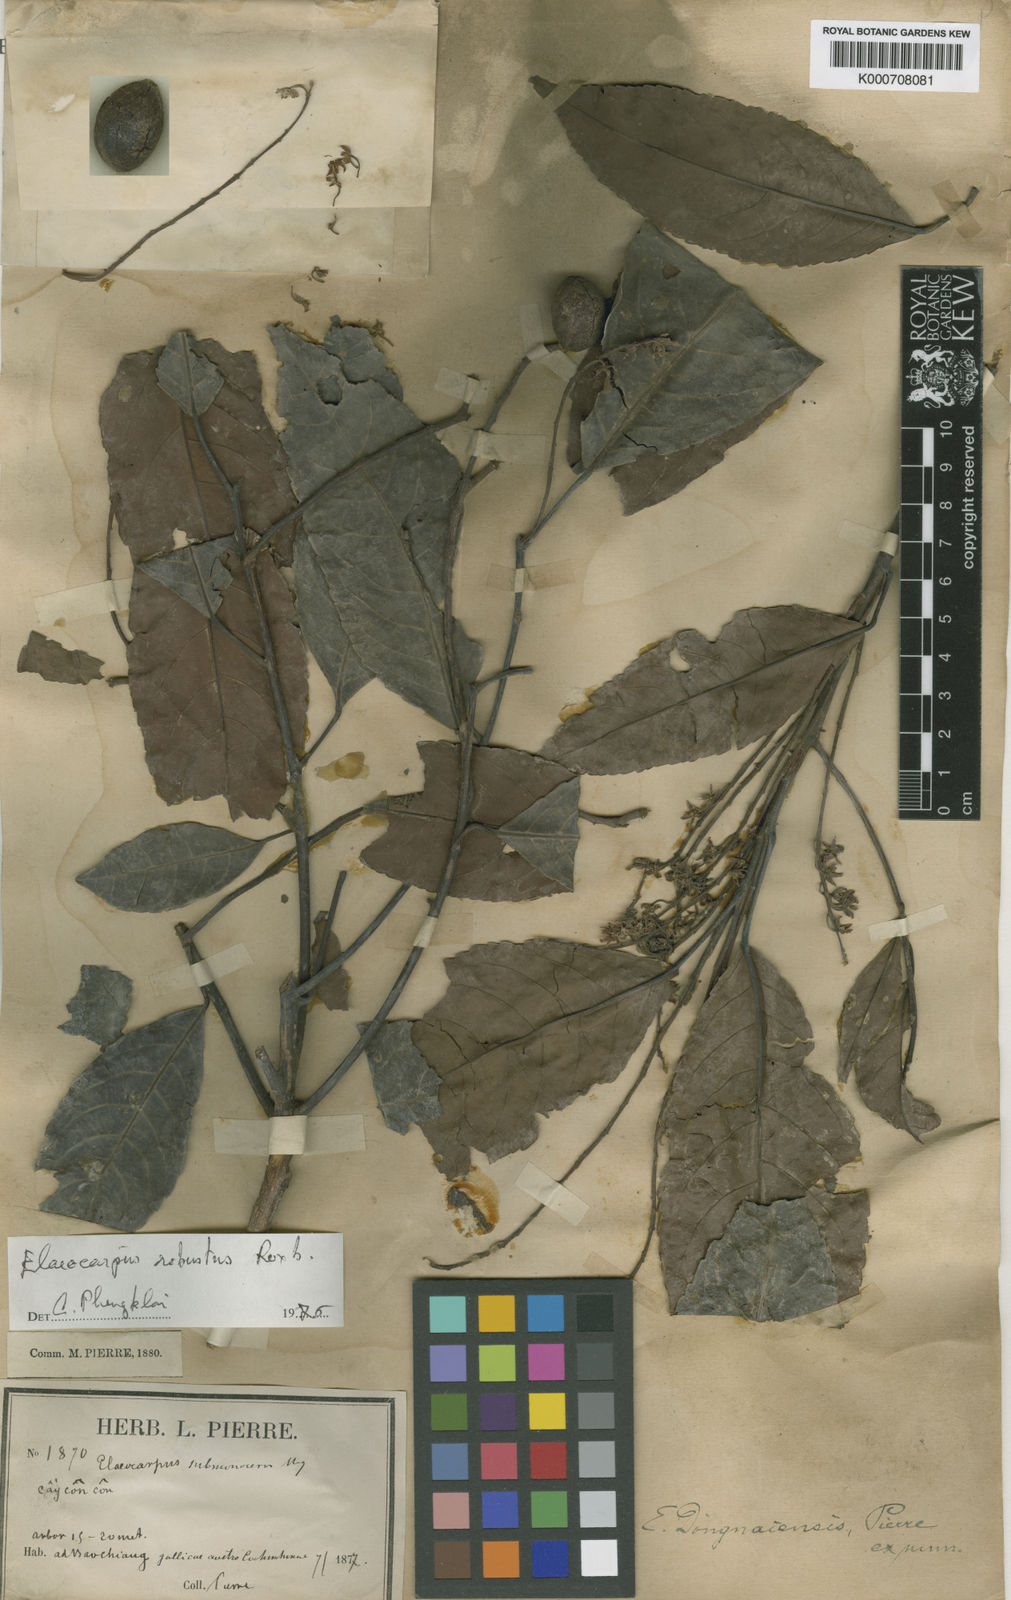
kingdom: Plantae
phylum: Tracheophyta
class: Magnoliopsida
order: Oxalidales
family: Elaeocarpaceae
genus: Elaeocarpus
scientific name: Elaeocarpus robustus
